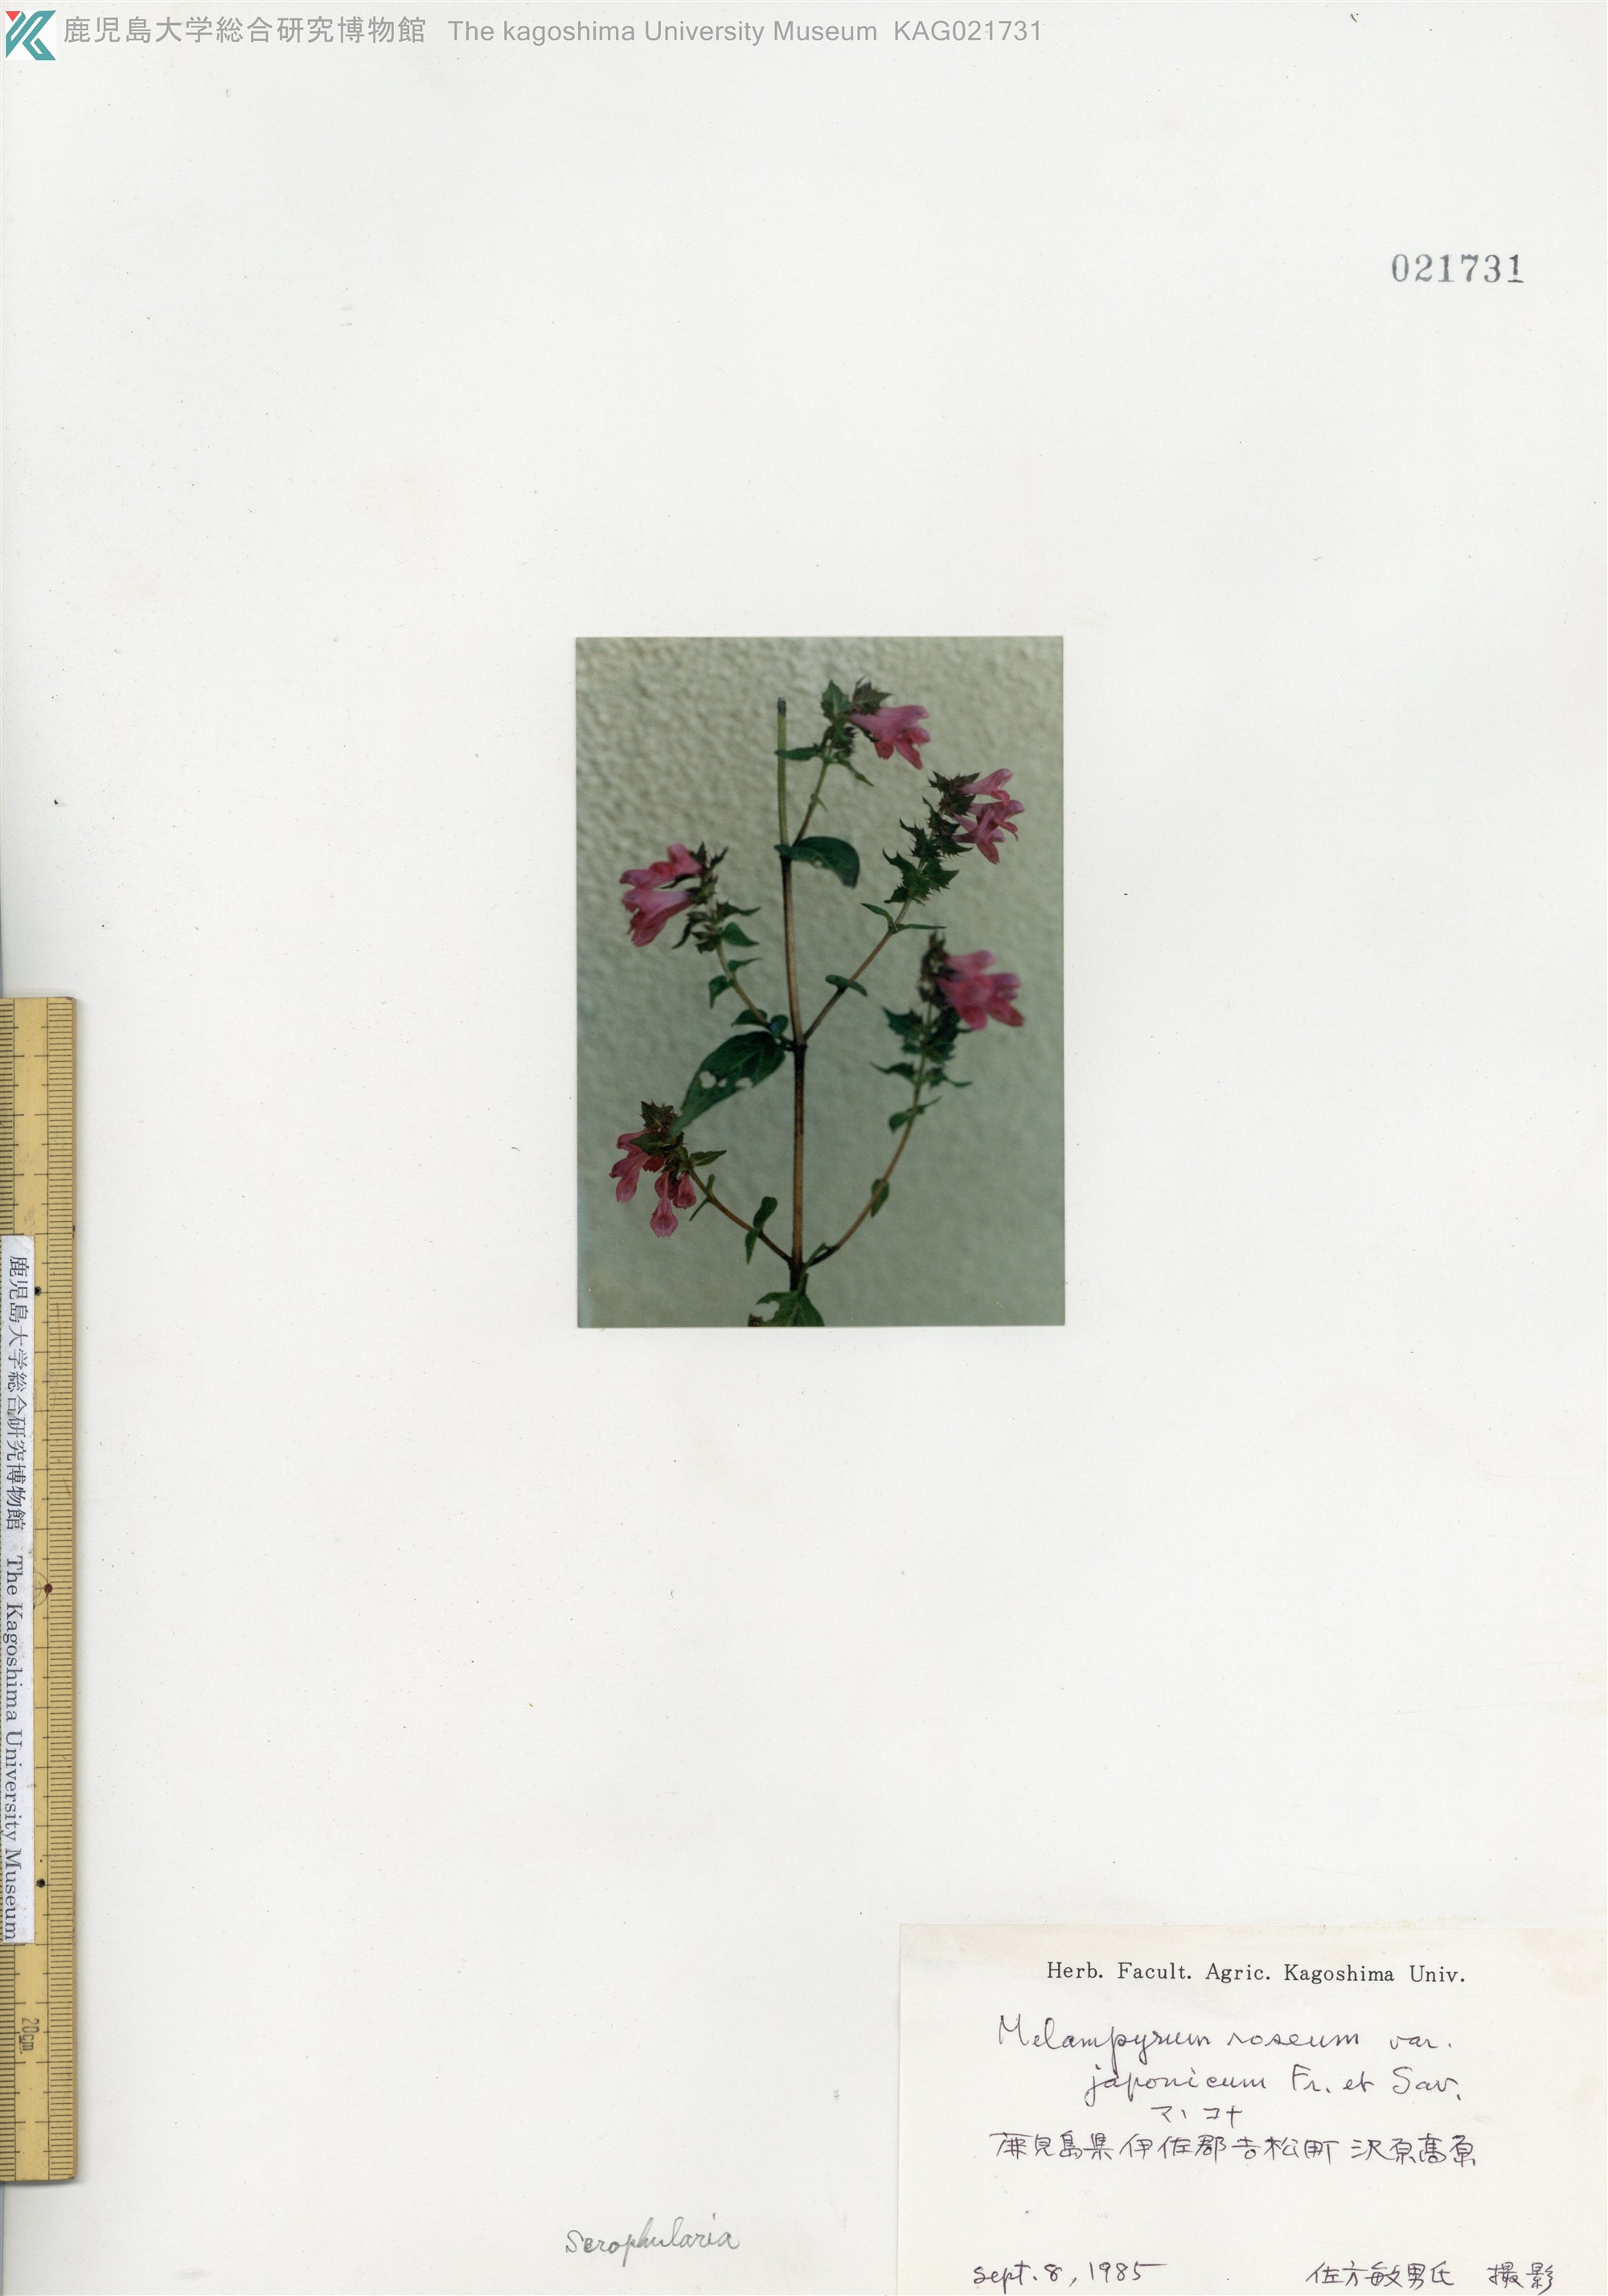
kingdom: Plantae
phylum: Tracheophyta
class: Magnoliopsida
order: Lamiales
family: Orobanchaceae
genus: Melampyrum
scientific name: Melampyrum roseum
